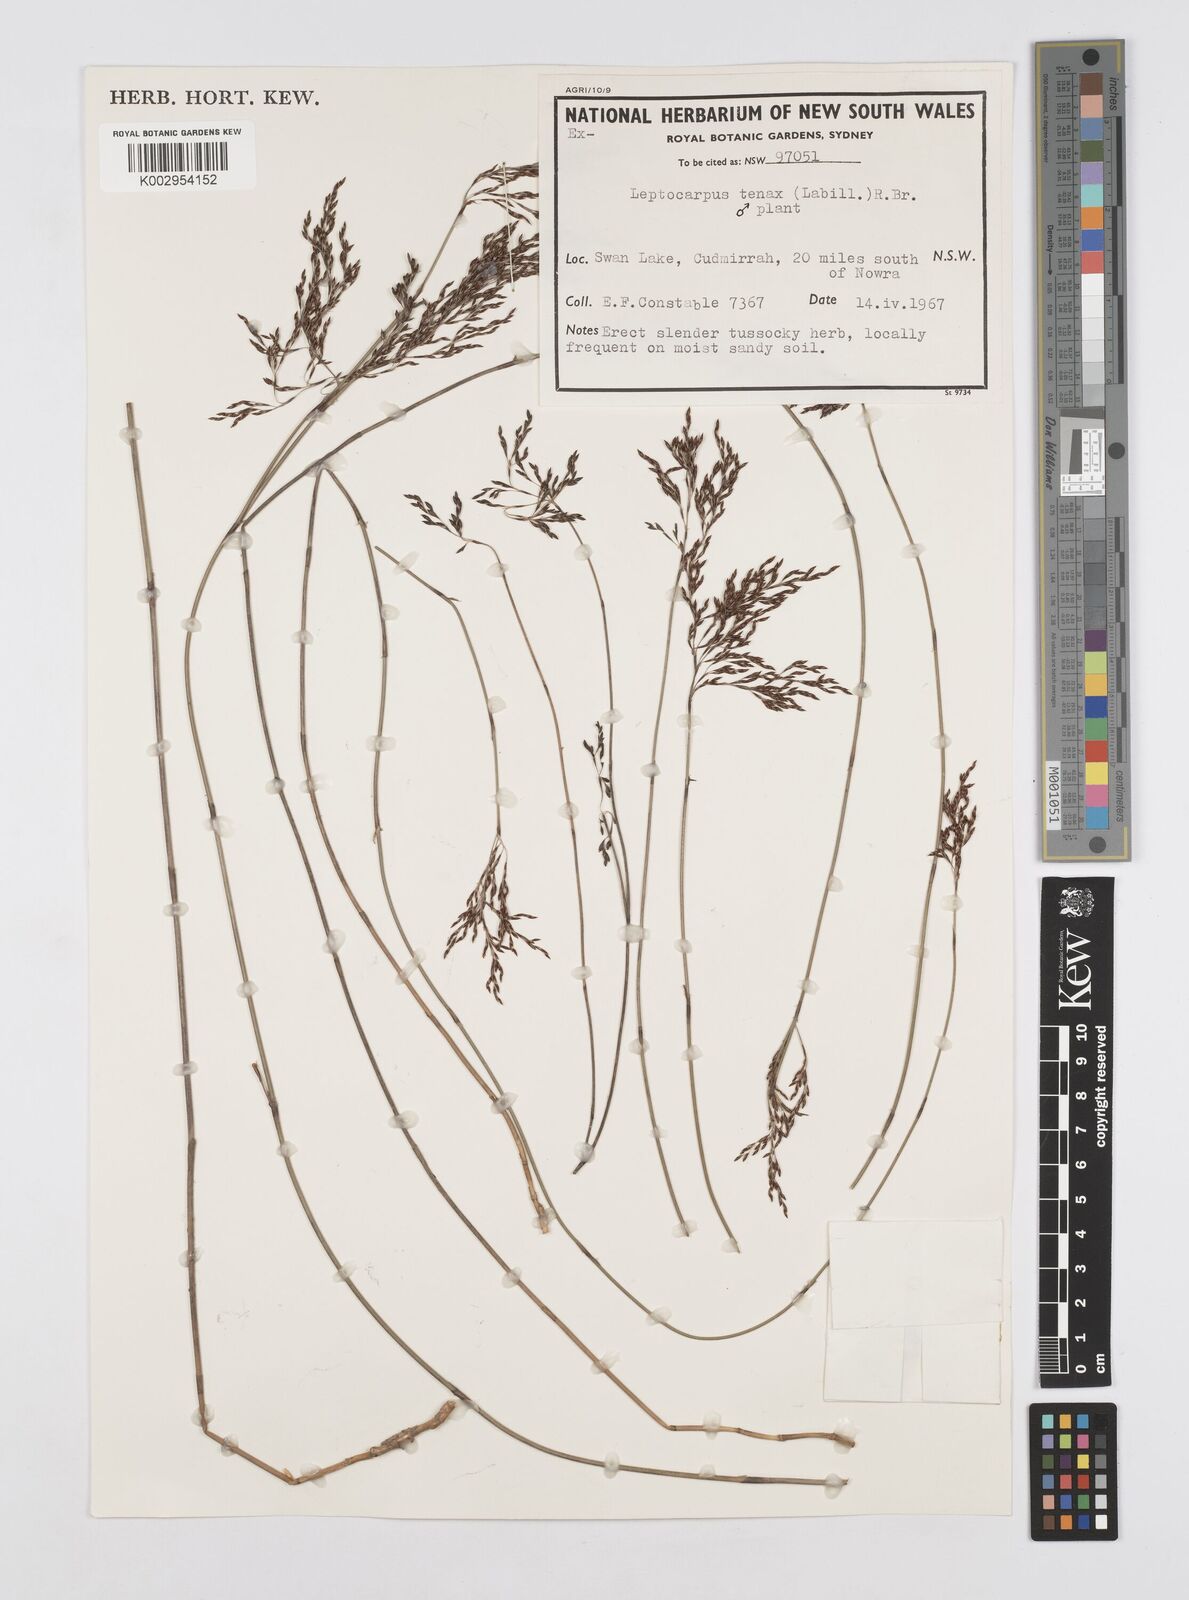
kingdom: Plantae
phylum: Tracheophyta
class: Liliopsida
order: Poales
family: Restionaceae
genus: Leptocarpus
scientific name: Leptocarpus tenax
